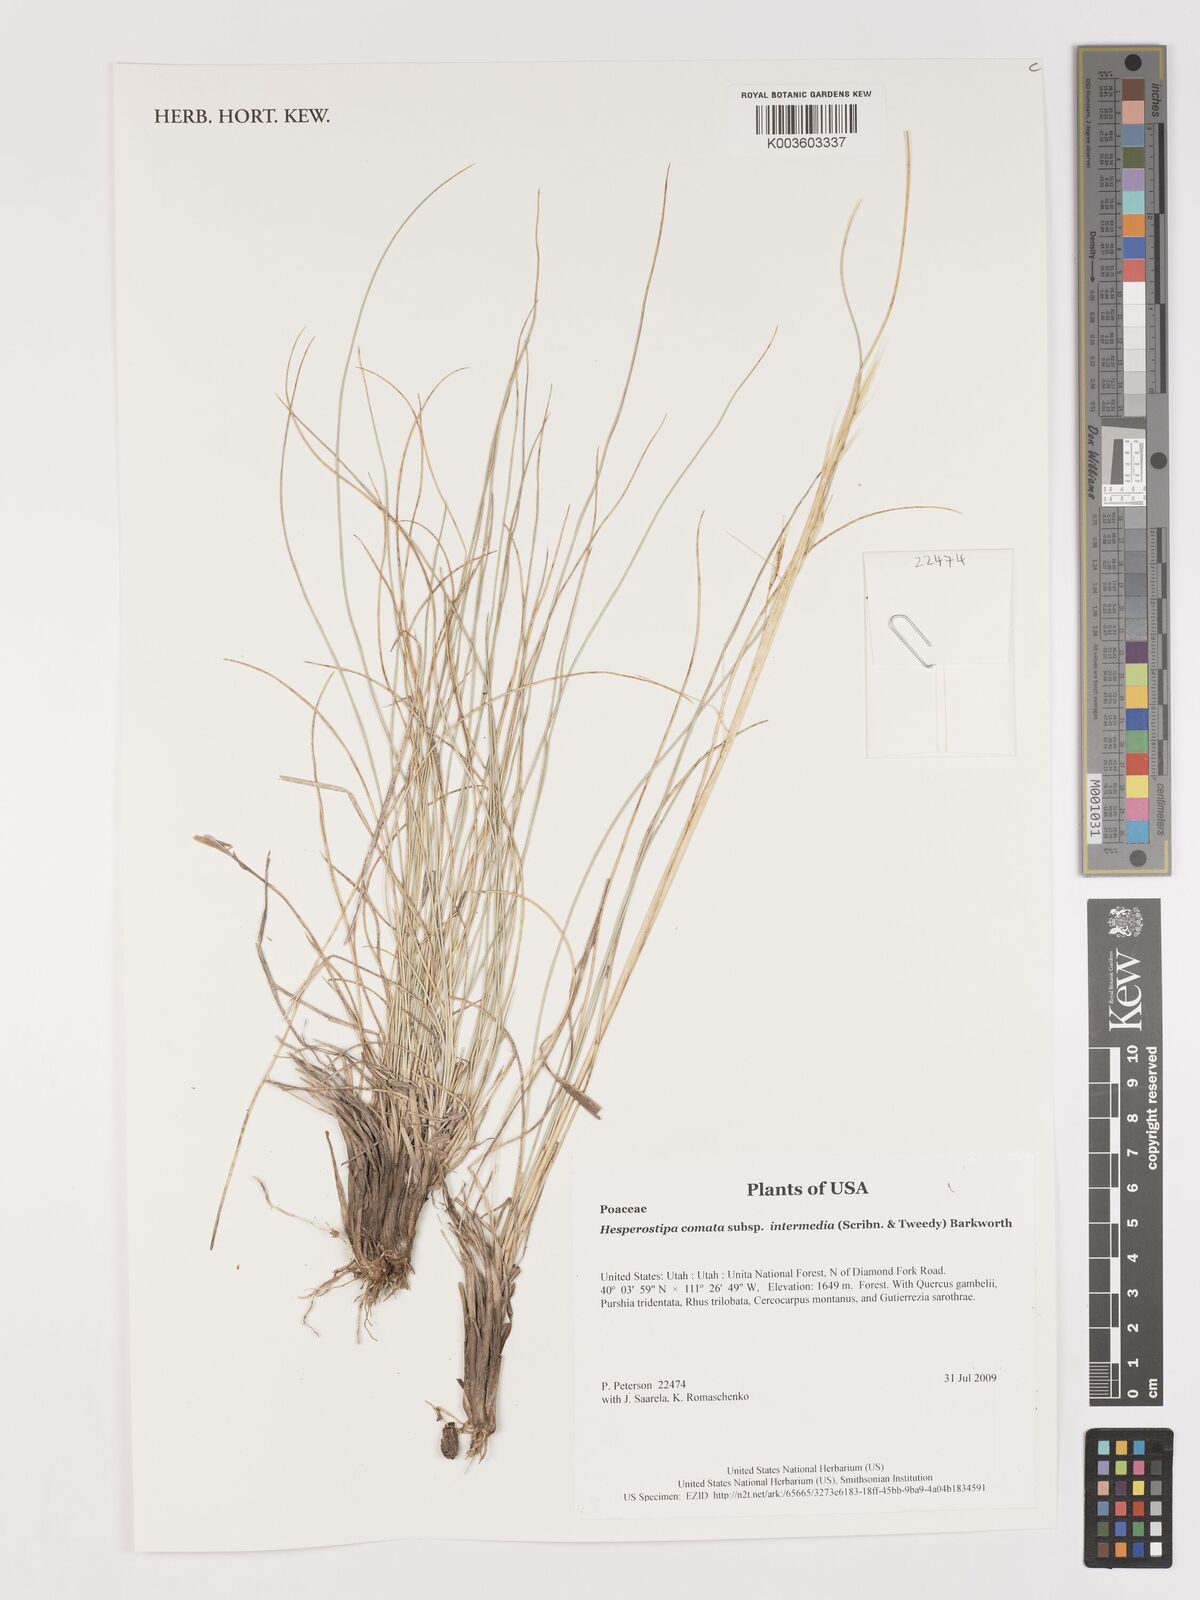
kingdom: Plantae
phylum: Tracheophyta
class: Liliopsida
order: Poales
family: Poaceae
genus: Hesperostipa
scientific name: Hesperostipa comata
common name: Needle-and-thread grass
